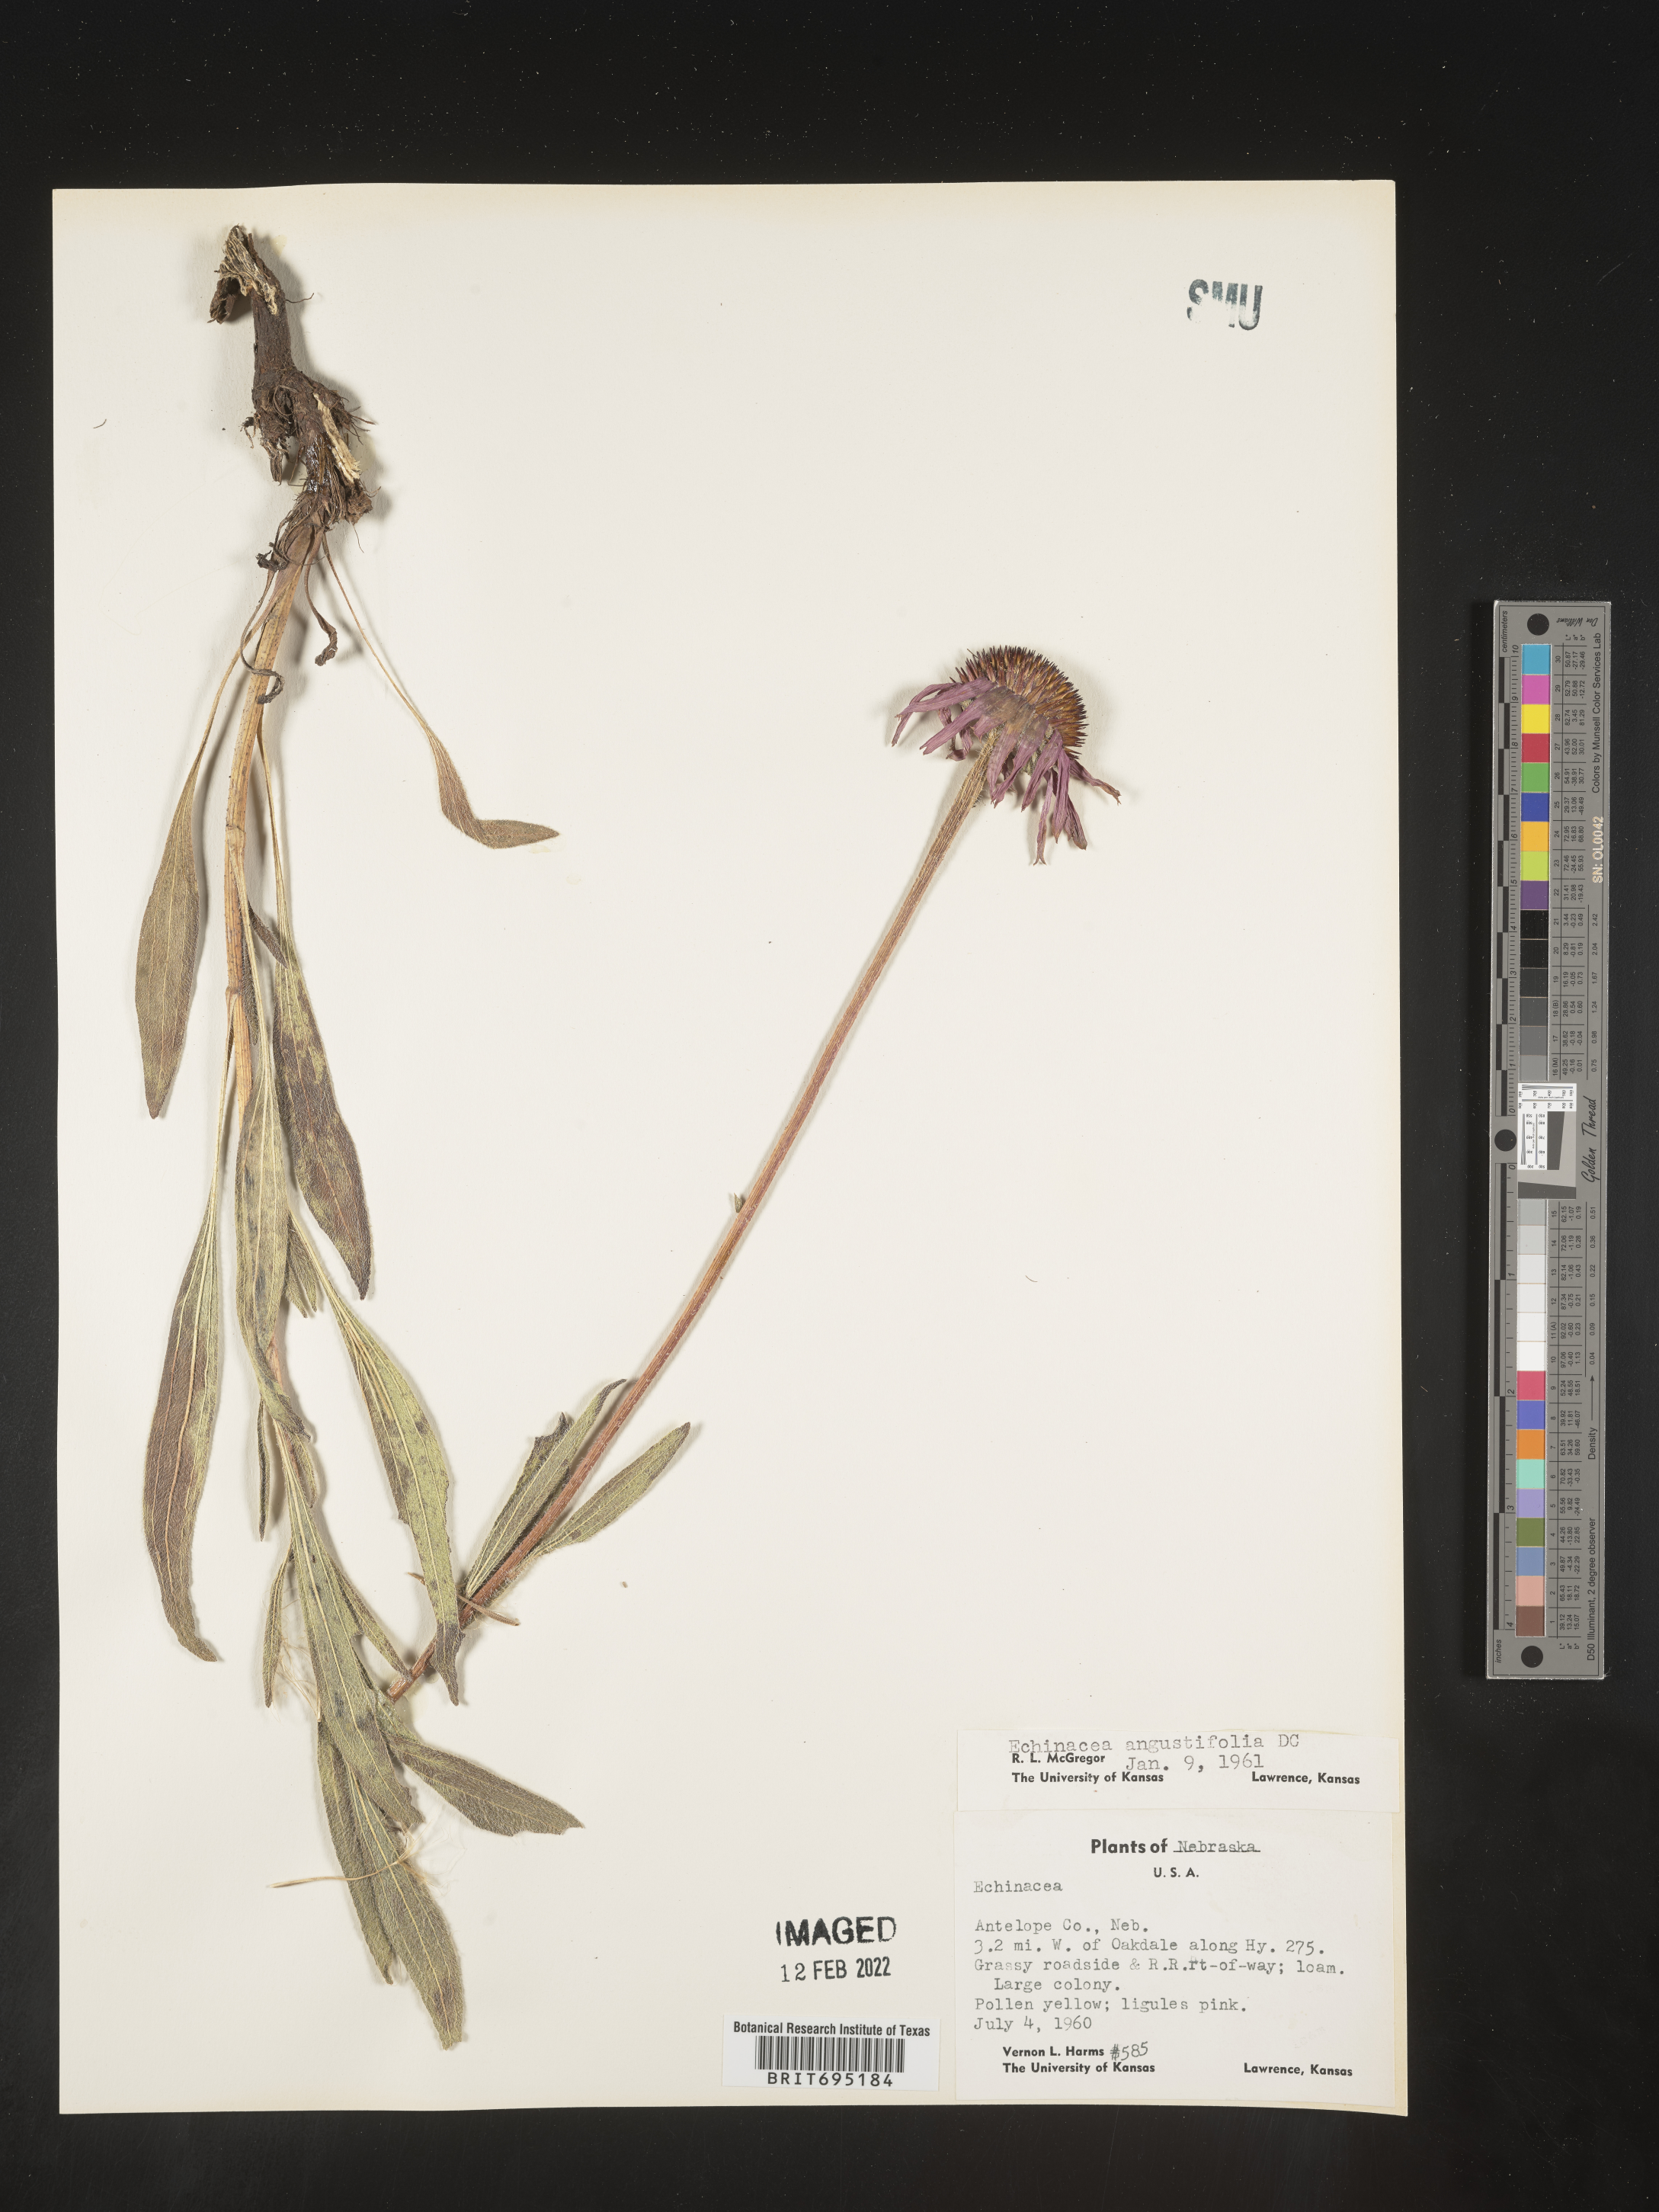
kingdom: Plantae
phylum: Tracheophyta
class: Magnoliopsida
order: Asterales
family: Asteraceae
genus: Echinacea
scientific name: Echinacea angustifolia
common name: Black-sampson echinacea
